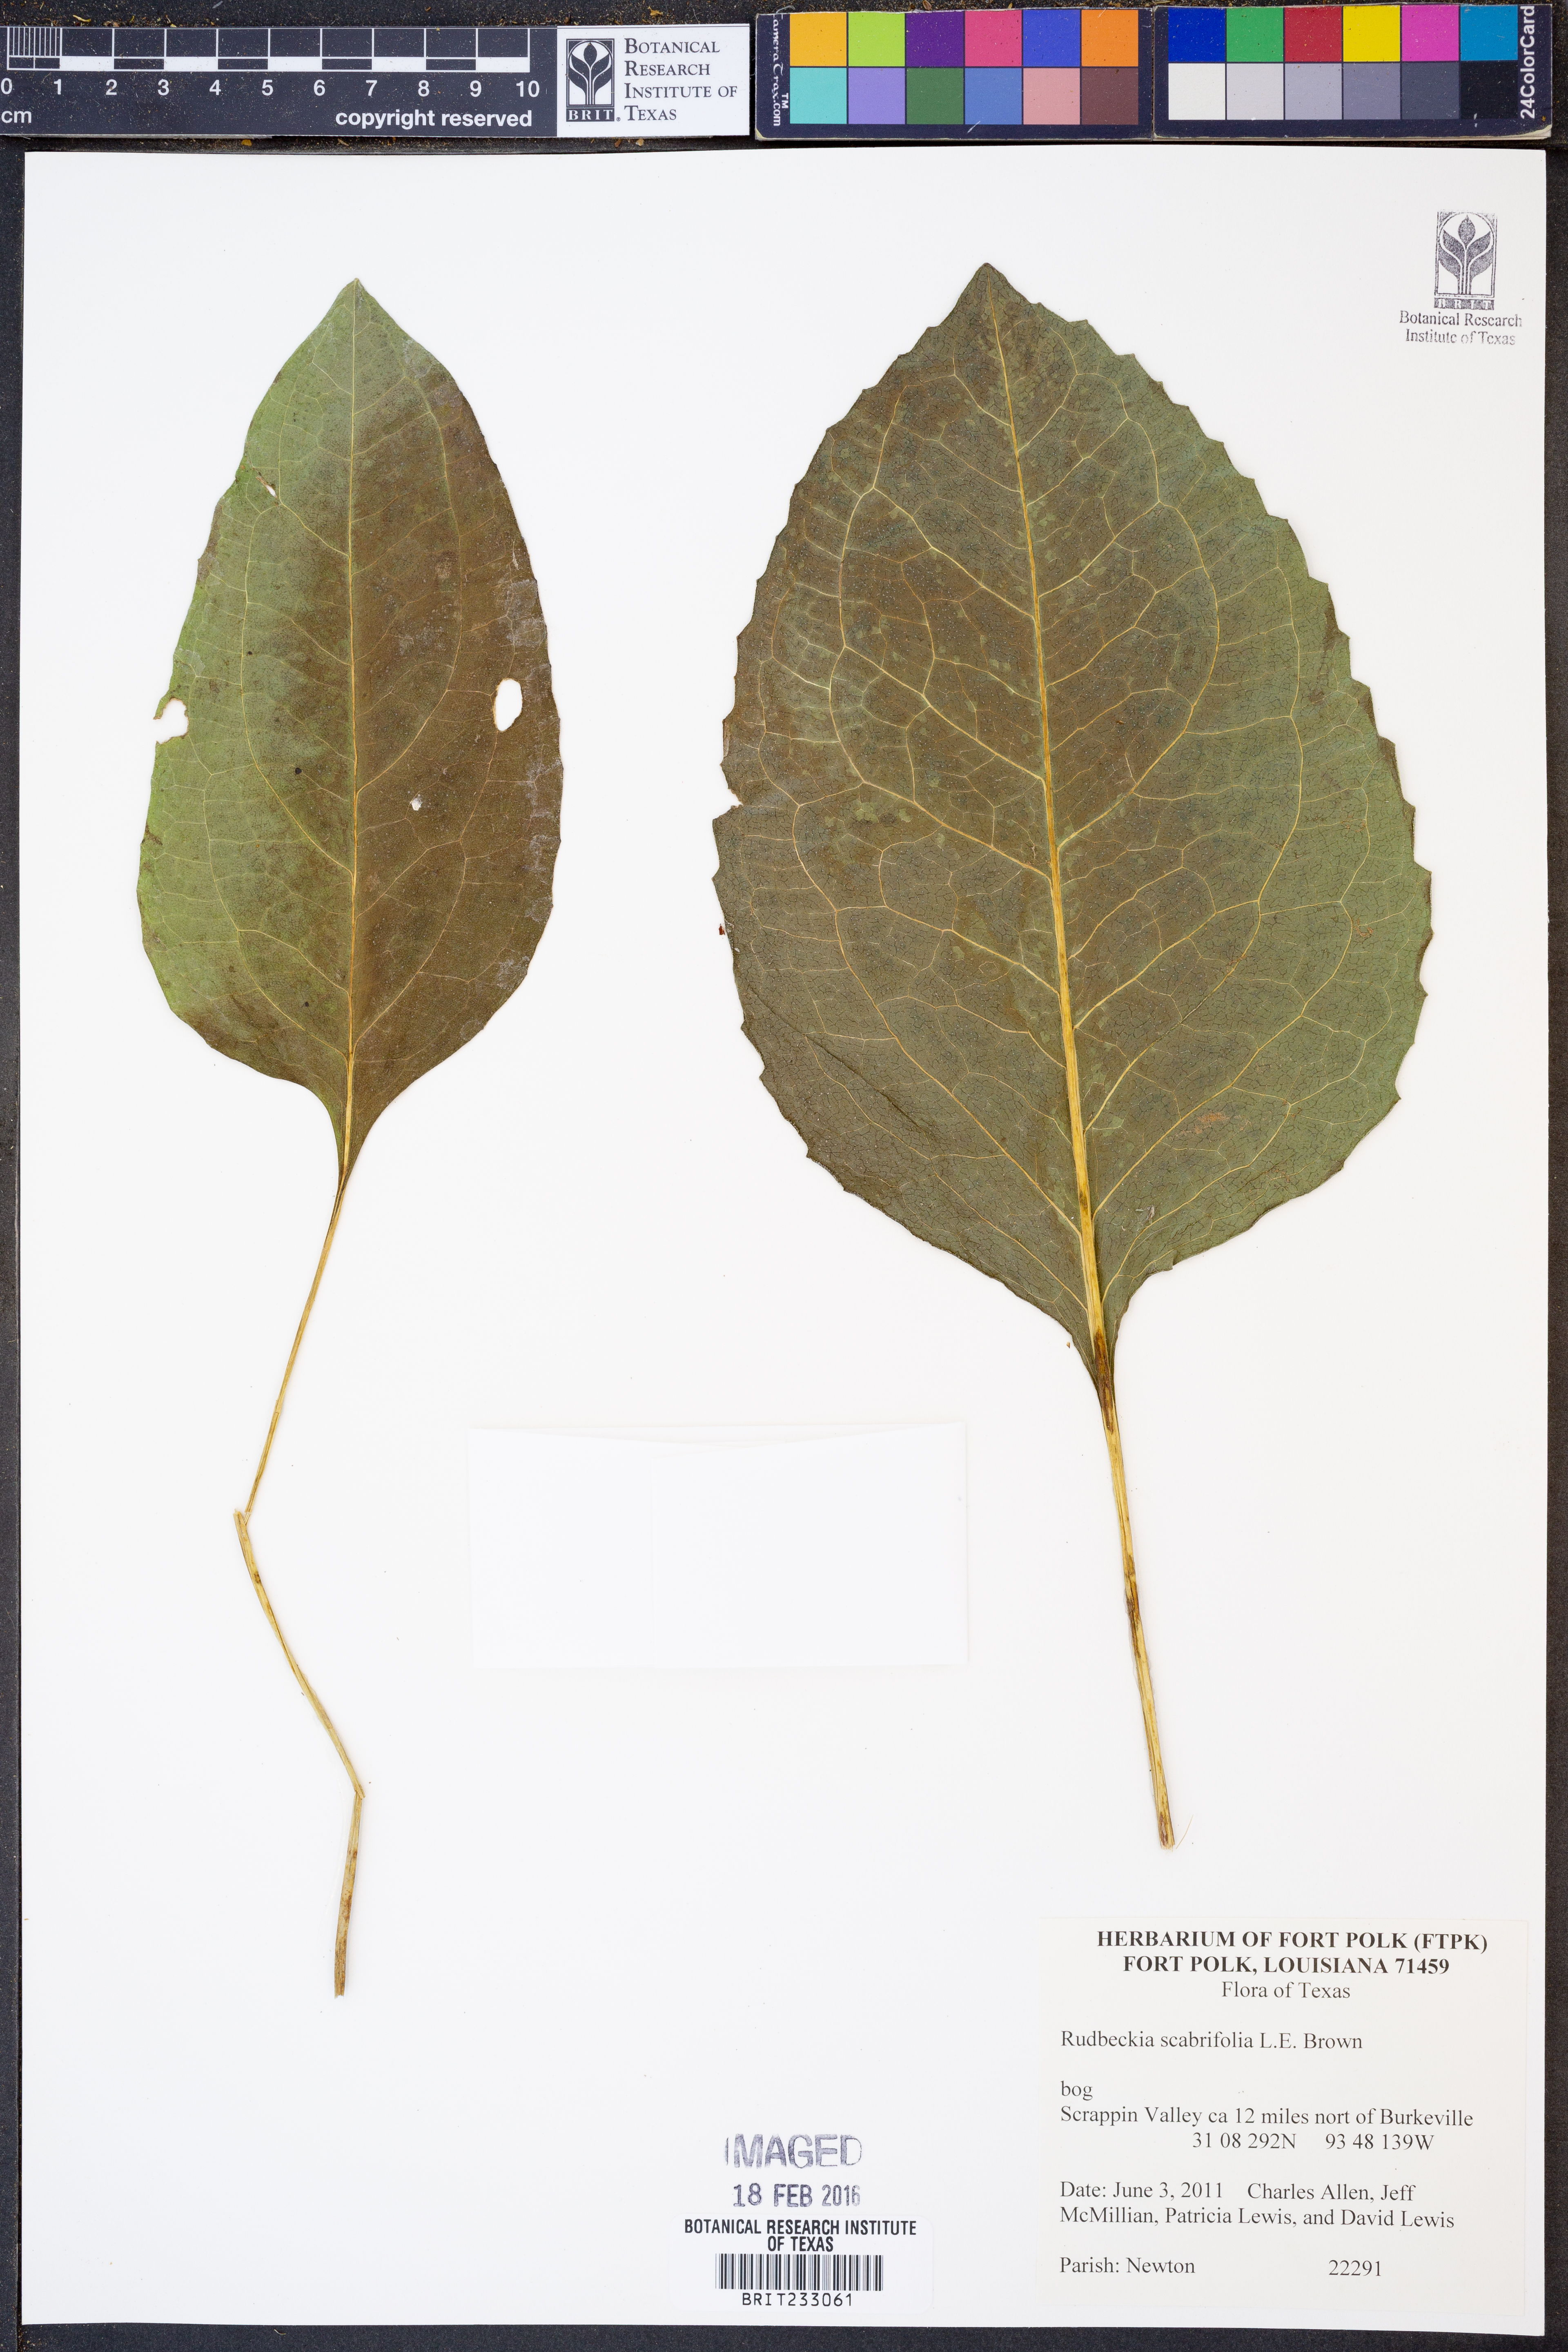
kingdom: Plantae
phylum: Tracheophyta
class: Magnoliopsida
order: Asterales
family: Asteraceae
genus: Rudbeckia
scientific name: Rudbeckia scabrifolia
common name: Rough-leaf coneflower
